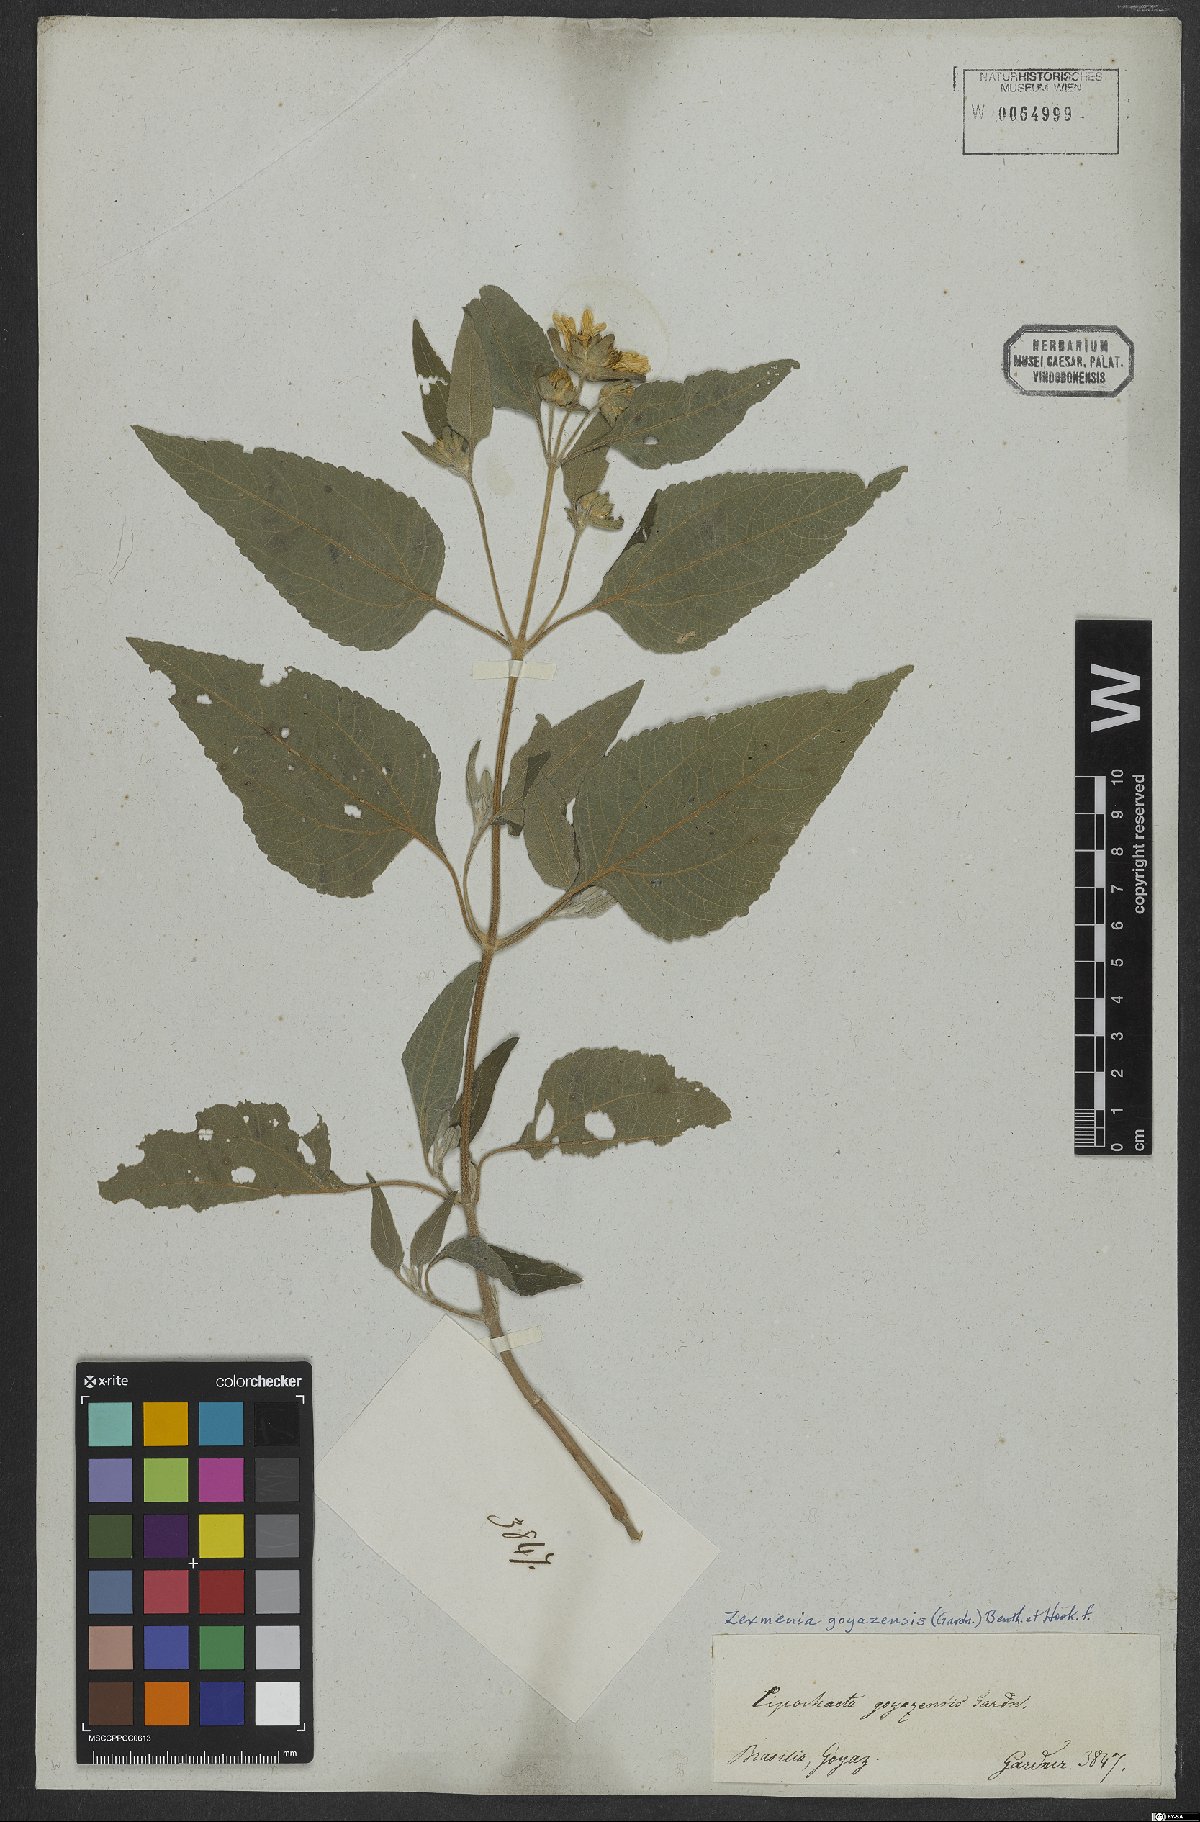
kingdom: Plantae
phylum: Tracheophyta
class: Magnoliopsida
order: Asterales
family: Asteraceae
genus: Dimerostemma
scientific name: Dimerostemma goyazense
